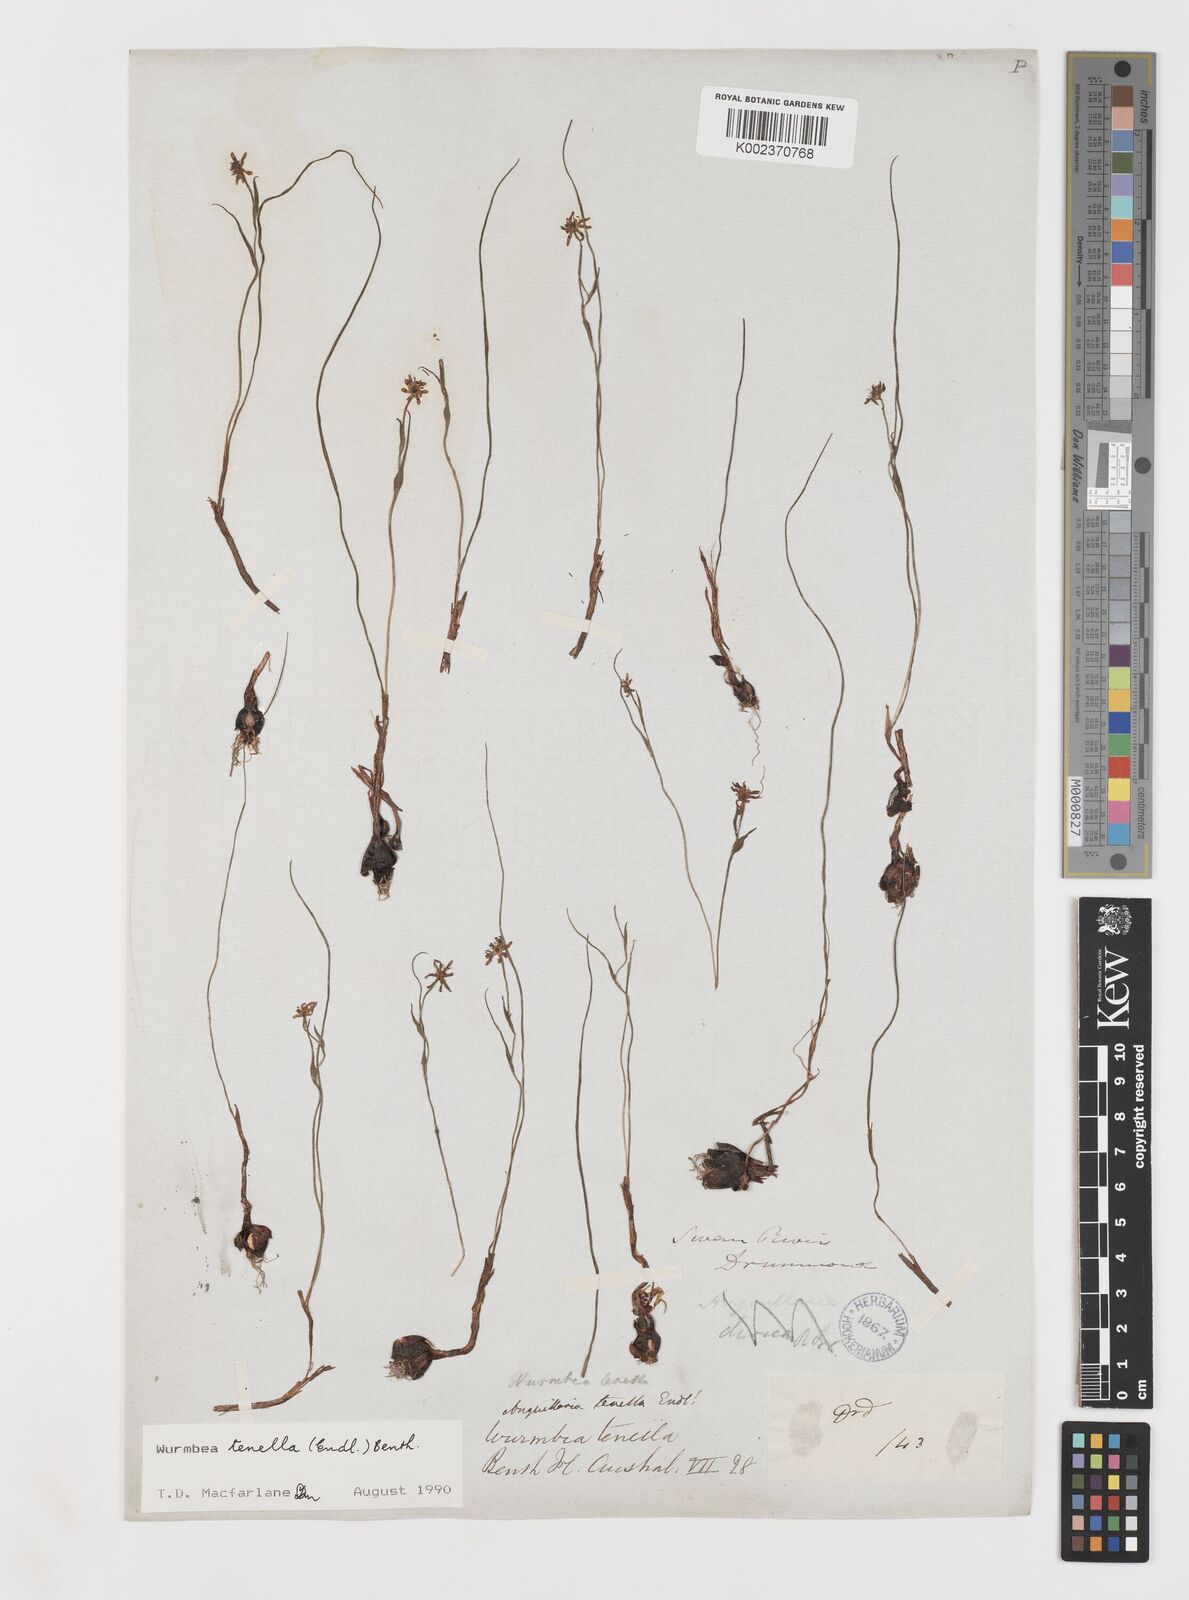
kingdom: Plantae
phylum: Tracheophyta
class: Liliopsida
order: Liliales
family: Colchicaceae
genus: Wurmbea
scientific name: Wurmbea tenella
